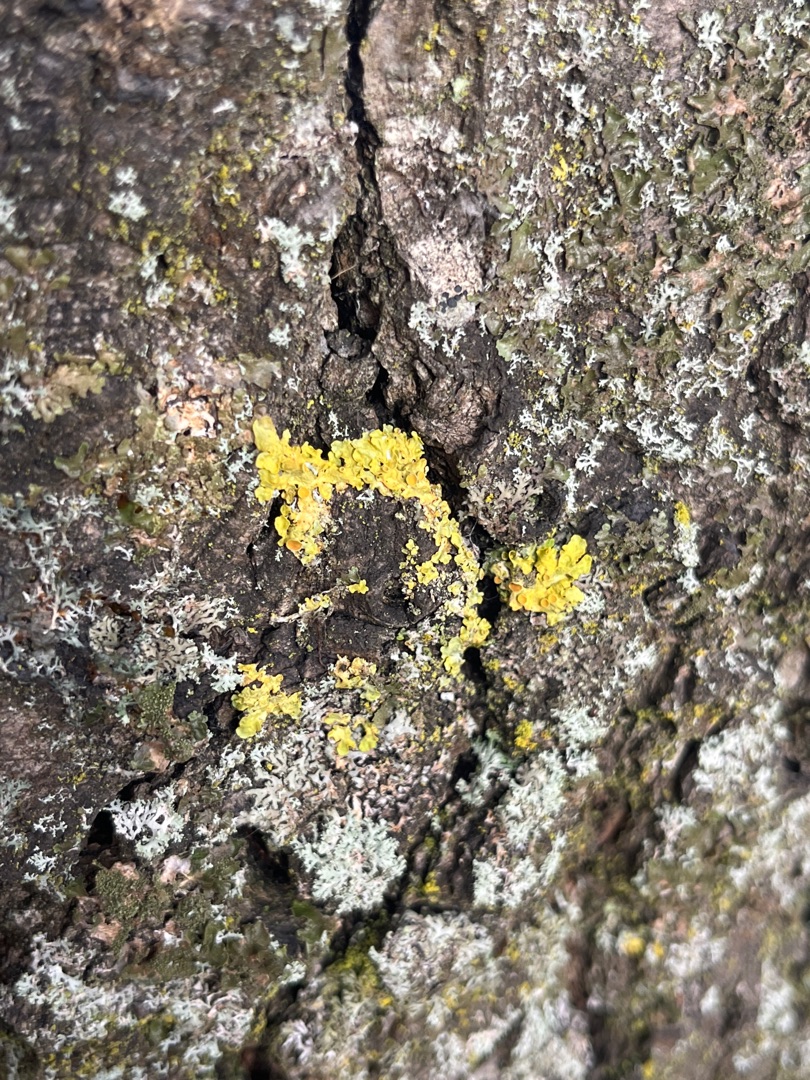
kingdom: Fungi
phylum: Ascomycota
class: Lecanoromycetes
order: Teloschistales
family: Teloschistaceae
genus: Xanthoria
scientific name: Xanthoria parietina
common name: Almindelig væggelav
